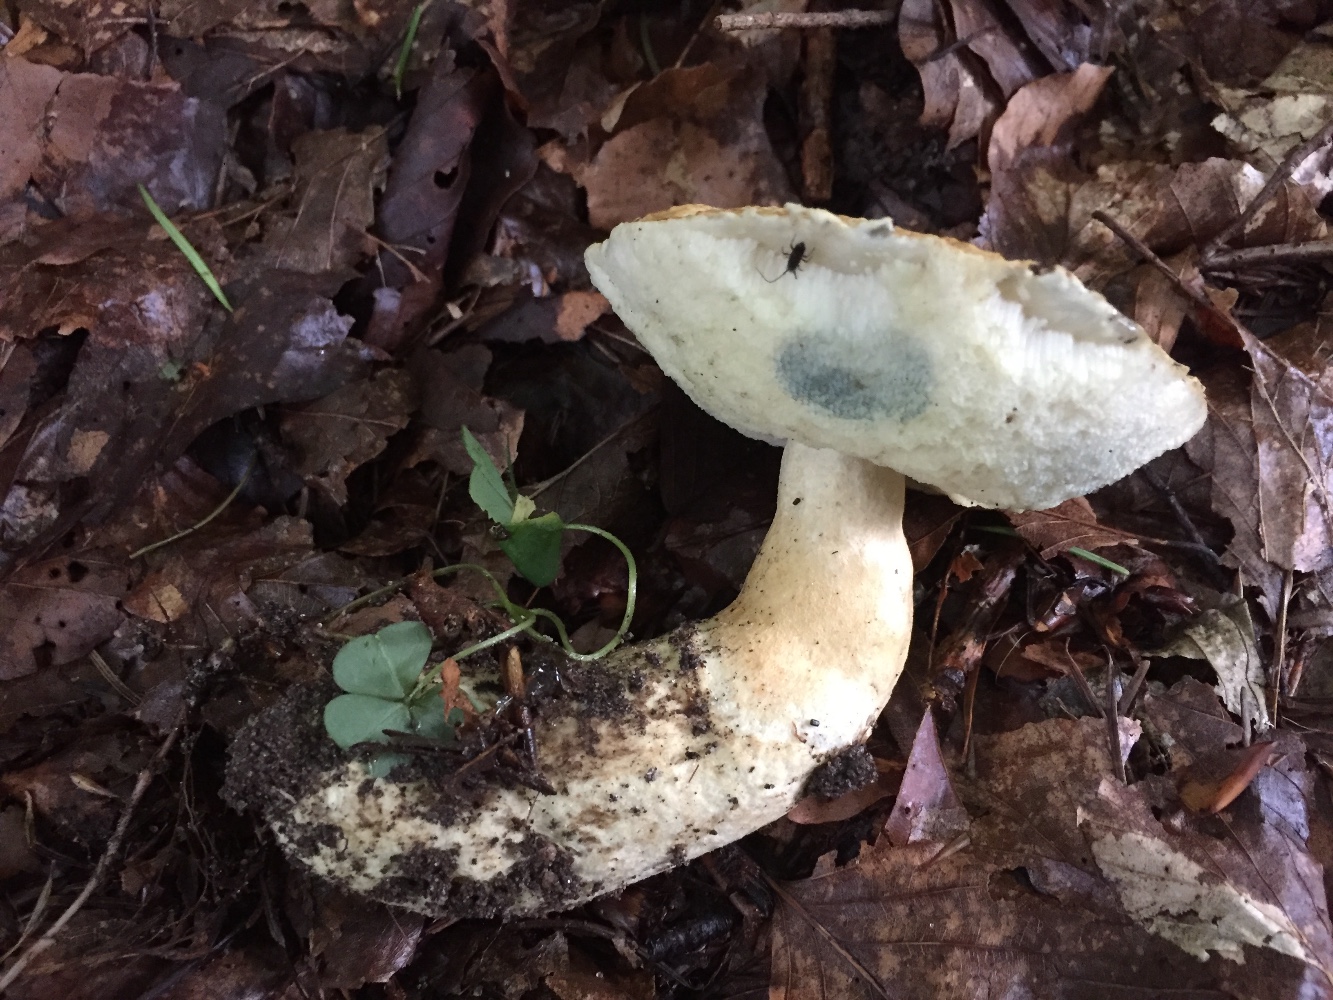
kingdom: Fungi
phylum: Basidiomycota
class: Agaricomycetes
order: Boletales
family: Gyroporaceae
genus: Gyroporus
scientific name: Gyroporus cyanescens
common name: blånende kammerrørhat
